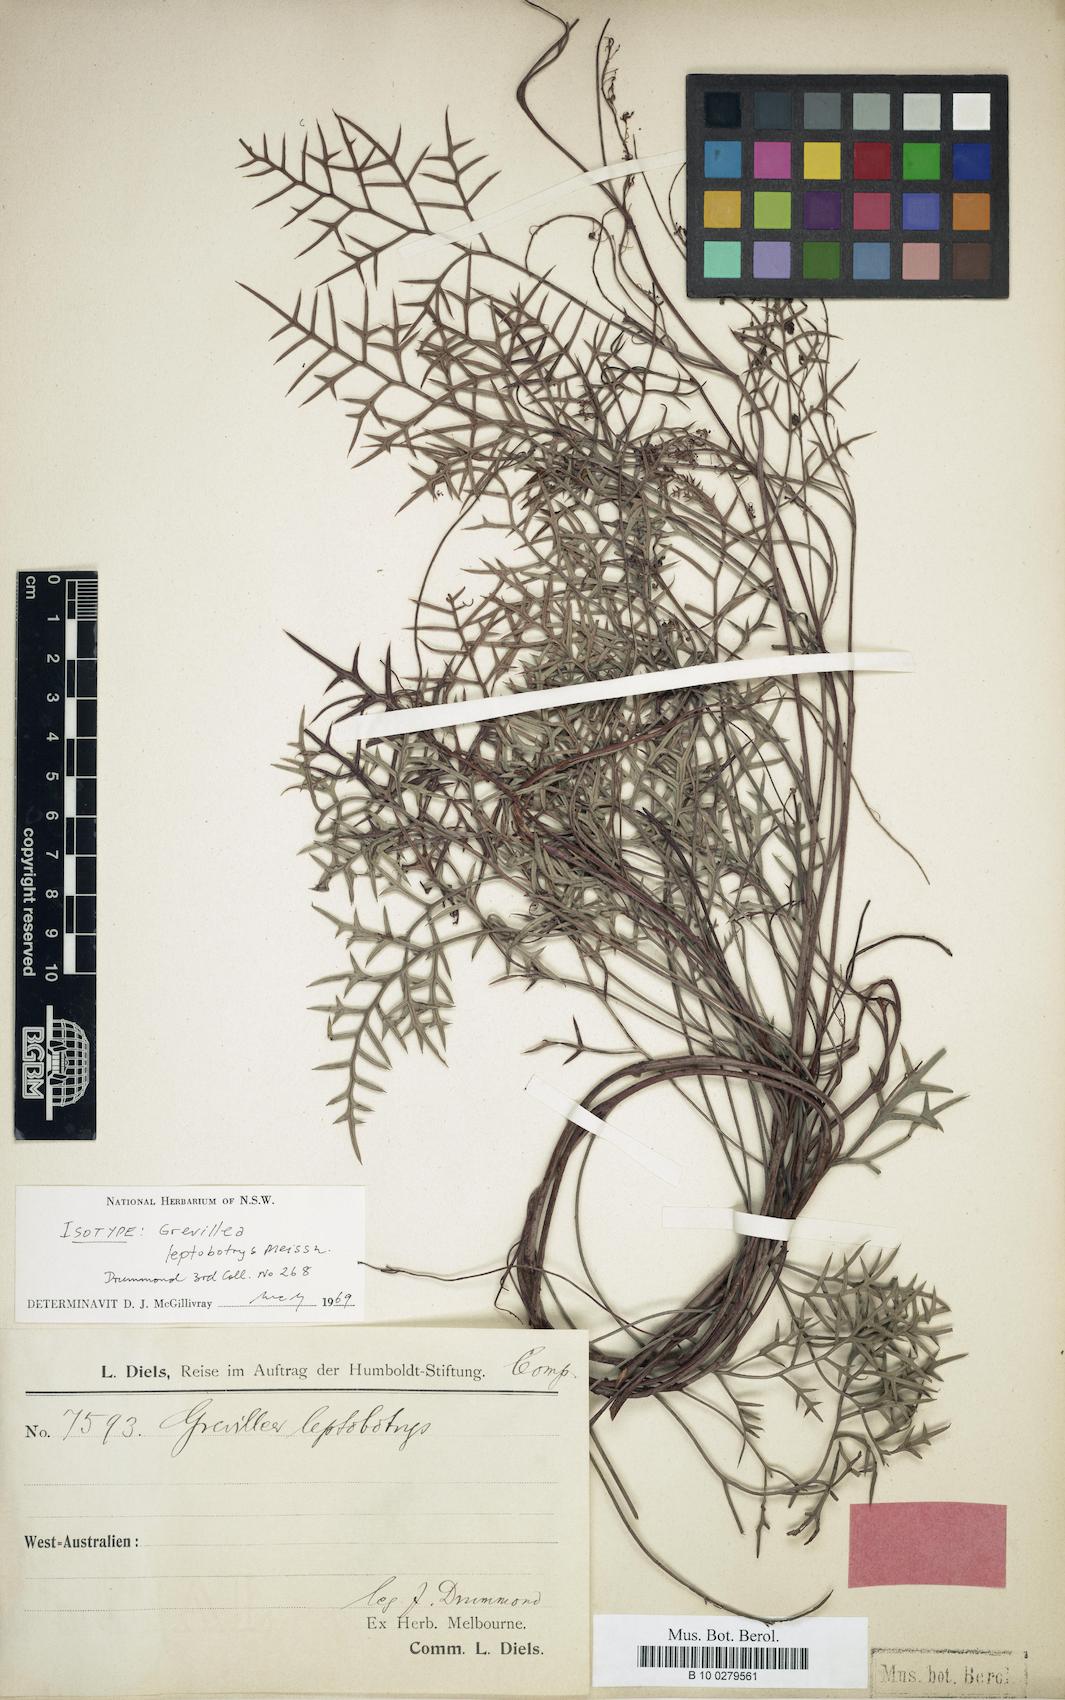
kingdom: Plantae
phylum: Tracheophyta
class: Magnoliopsida
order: Proteales
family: Proteaceae
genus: Grevillea
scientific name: Grevillea leptobotrys
